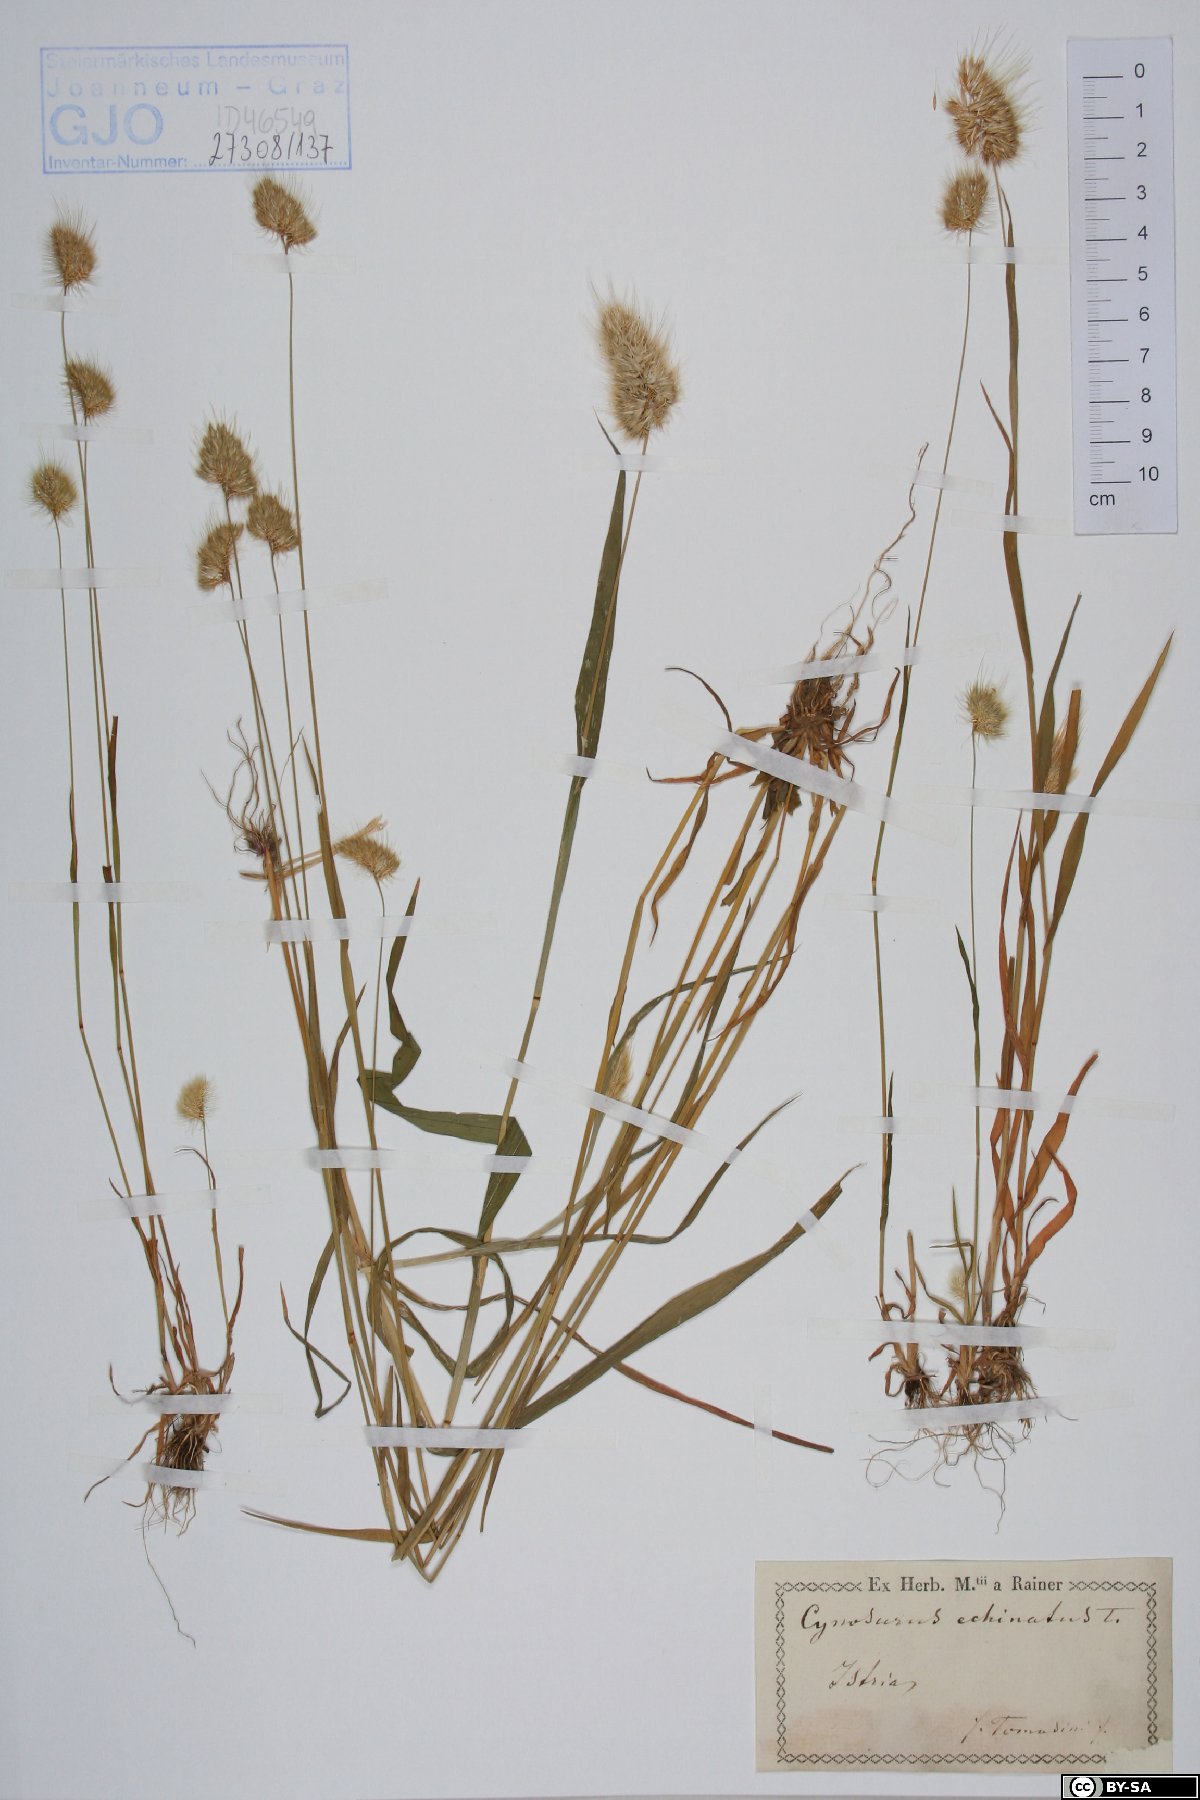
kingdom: Plantae
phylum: Tracheophyta
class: Liliopsida
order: Poales
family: Poaceae
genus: Cynosurus
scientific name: Cynosurus echinatus
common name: Rough dog's-tail
